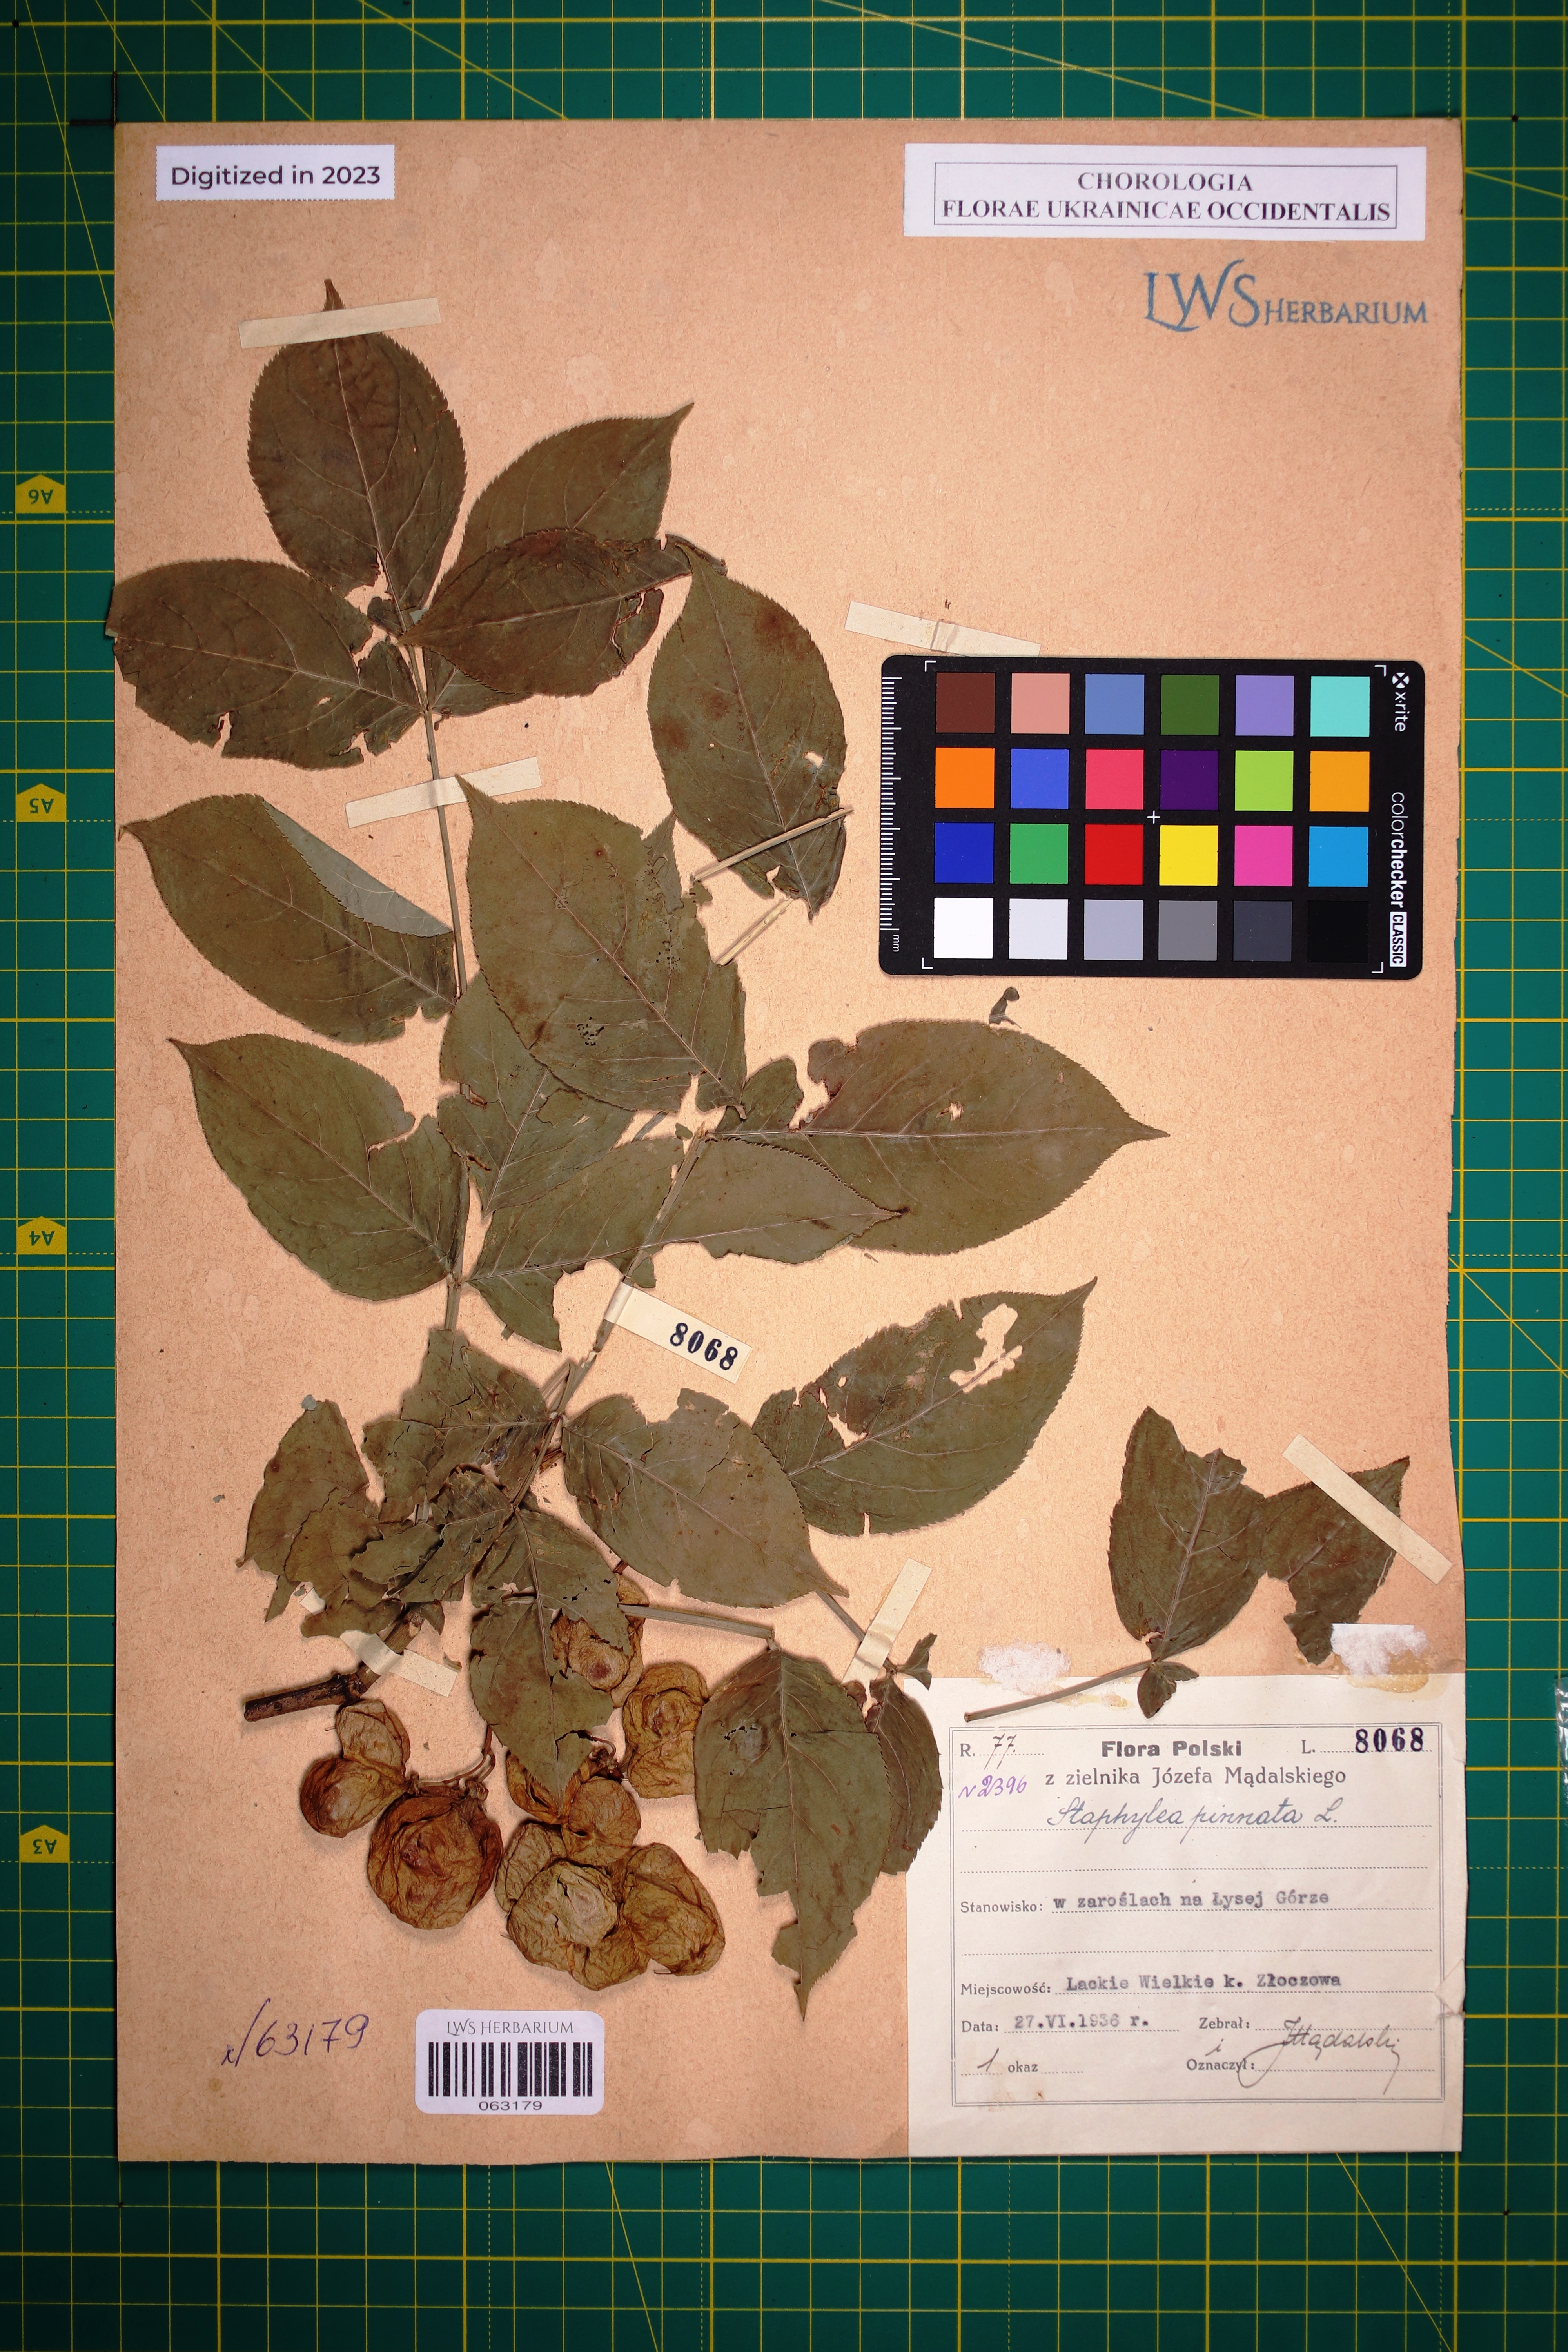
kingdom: Plantae
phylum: Tracheophyta
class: Magnoliopsida
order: Crossosomatales
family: Staphyleaceae
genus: Staphylea
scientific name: Staphylea pinnata
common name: Bladdernut
